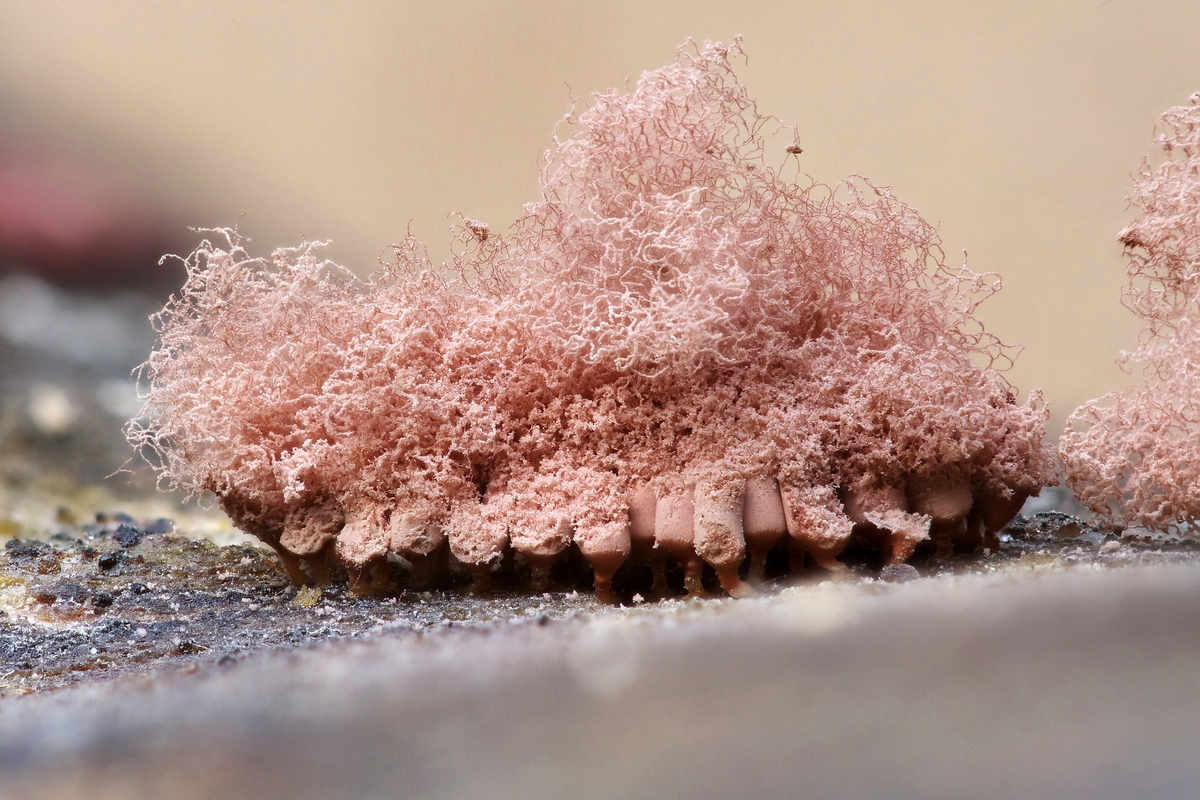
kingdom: Protozoa
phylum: Amoebozoa
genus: Arcyria
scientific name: Arcyria
